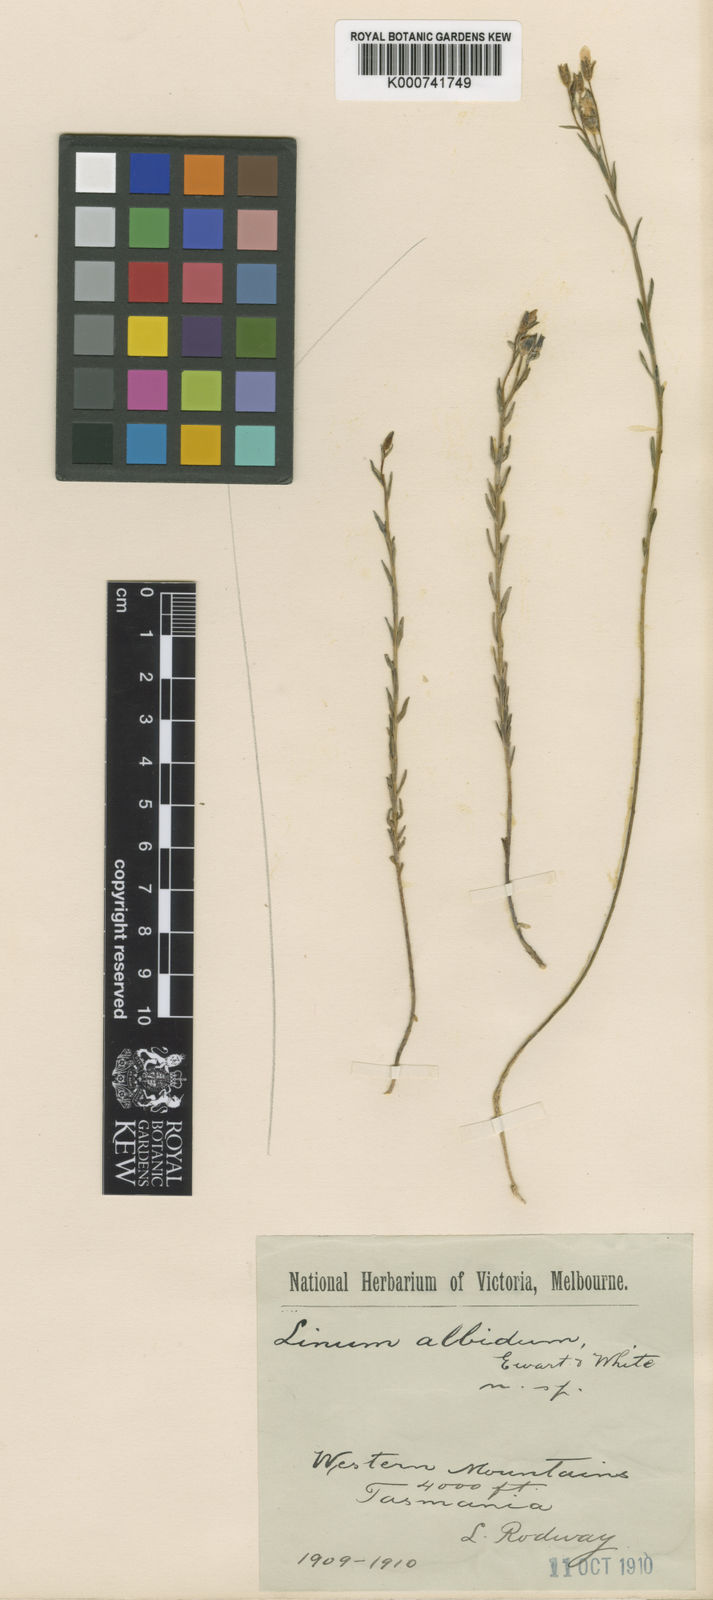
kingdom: Plantae
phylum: Tracheophyta
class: Magnoliopsida
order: Malpighiales
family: Linaceae
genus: Linum
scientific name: Linum marginale
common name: Wild flax
